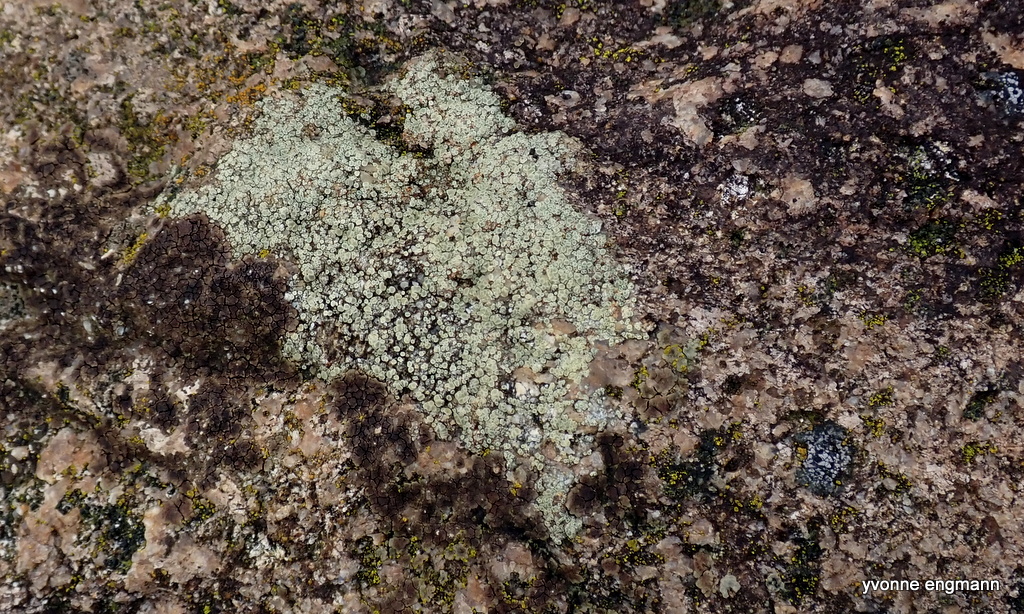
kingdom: Fungi
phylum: Ascomycota
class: Lecanoromycetes
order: Lecanorales
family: Lecanoraceae
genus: Lecanora
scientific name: Lecanora polytropa
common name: bleggrøn kantskivelav
